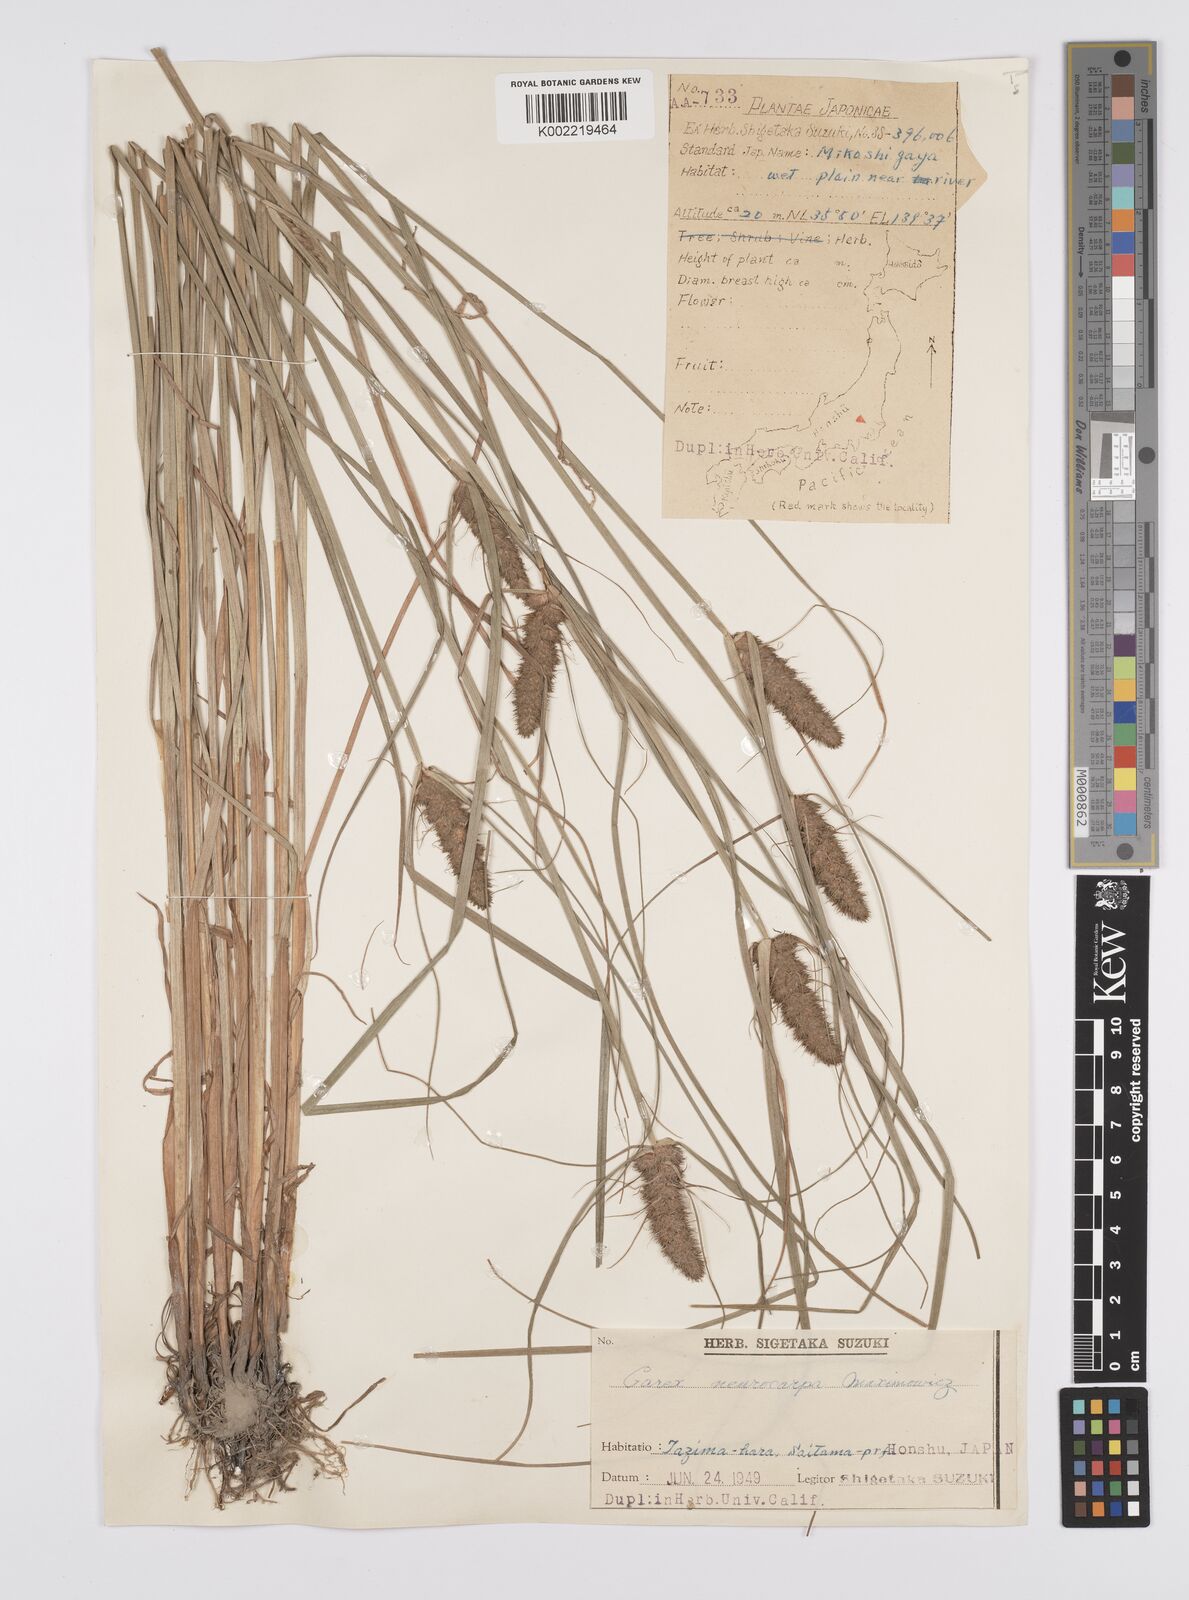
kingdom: Plantae
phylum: Tracheophyta
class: Liliopsida
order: Poales
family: Cyperaceae
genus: Carex
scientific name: Carex neurocarpa
